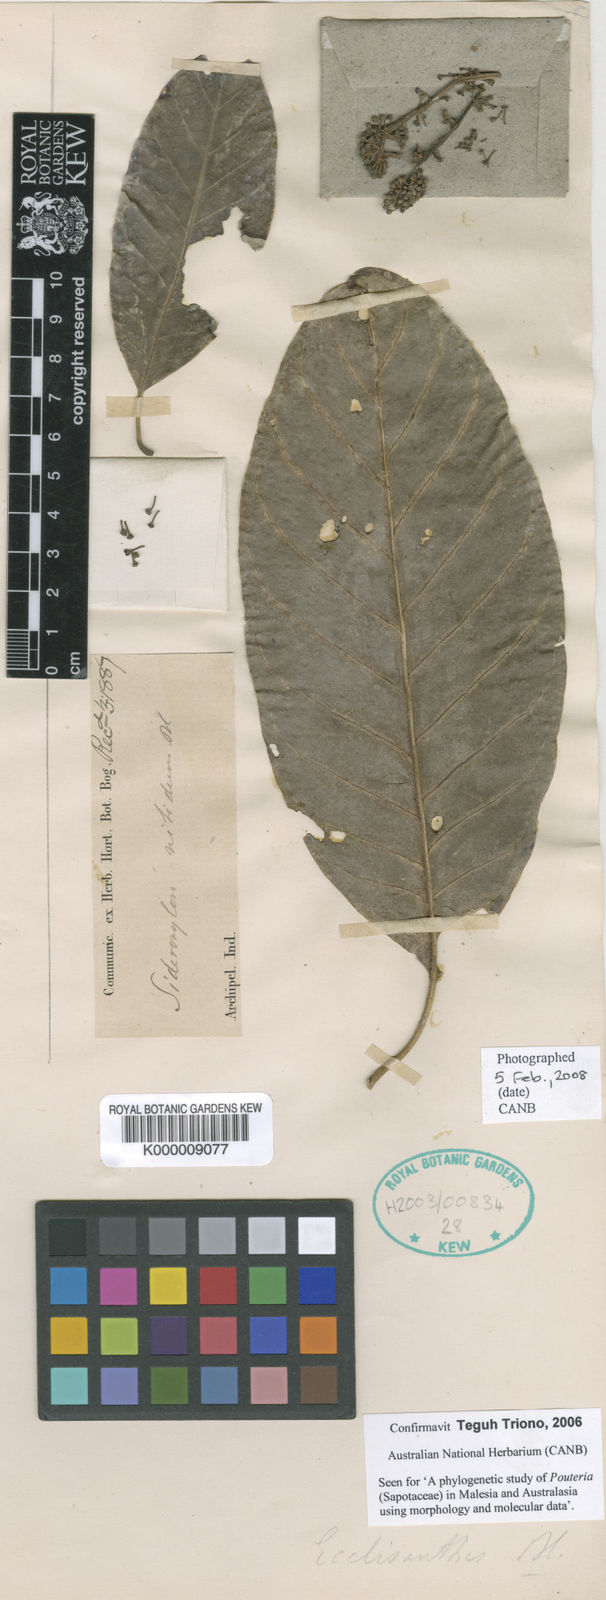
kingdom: Plantae
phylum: Tracheophyta
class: Magnoliopsida
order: Ericales
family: Sapotaceae
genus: Planchonella
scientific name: Planchonella duclitan
